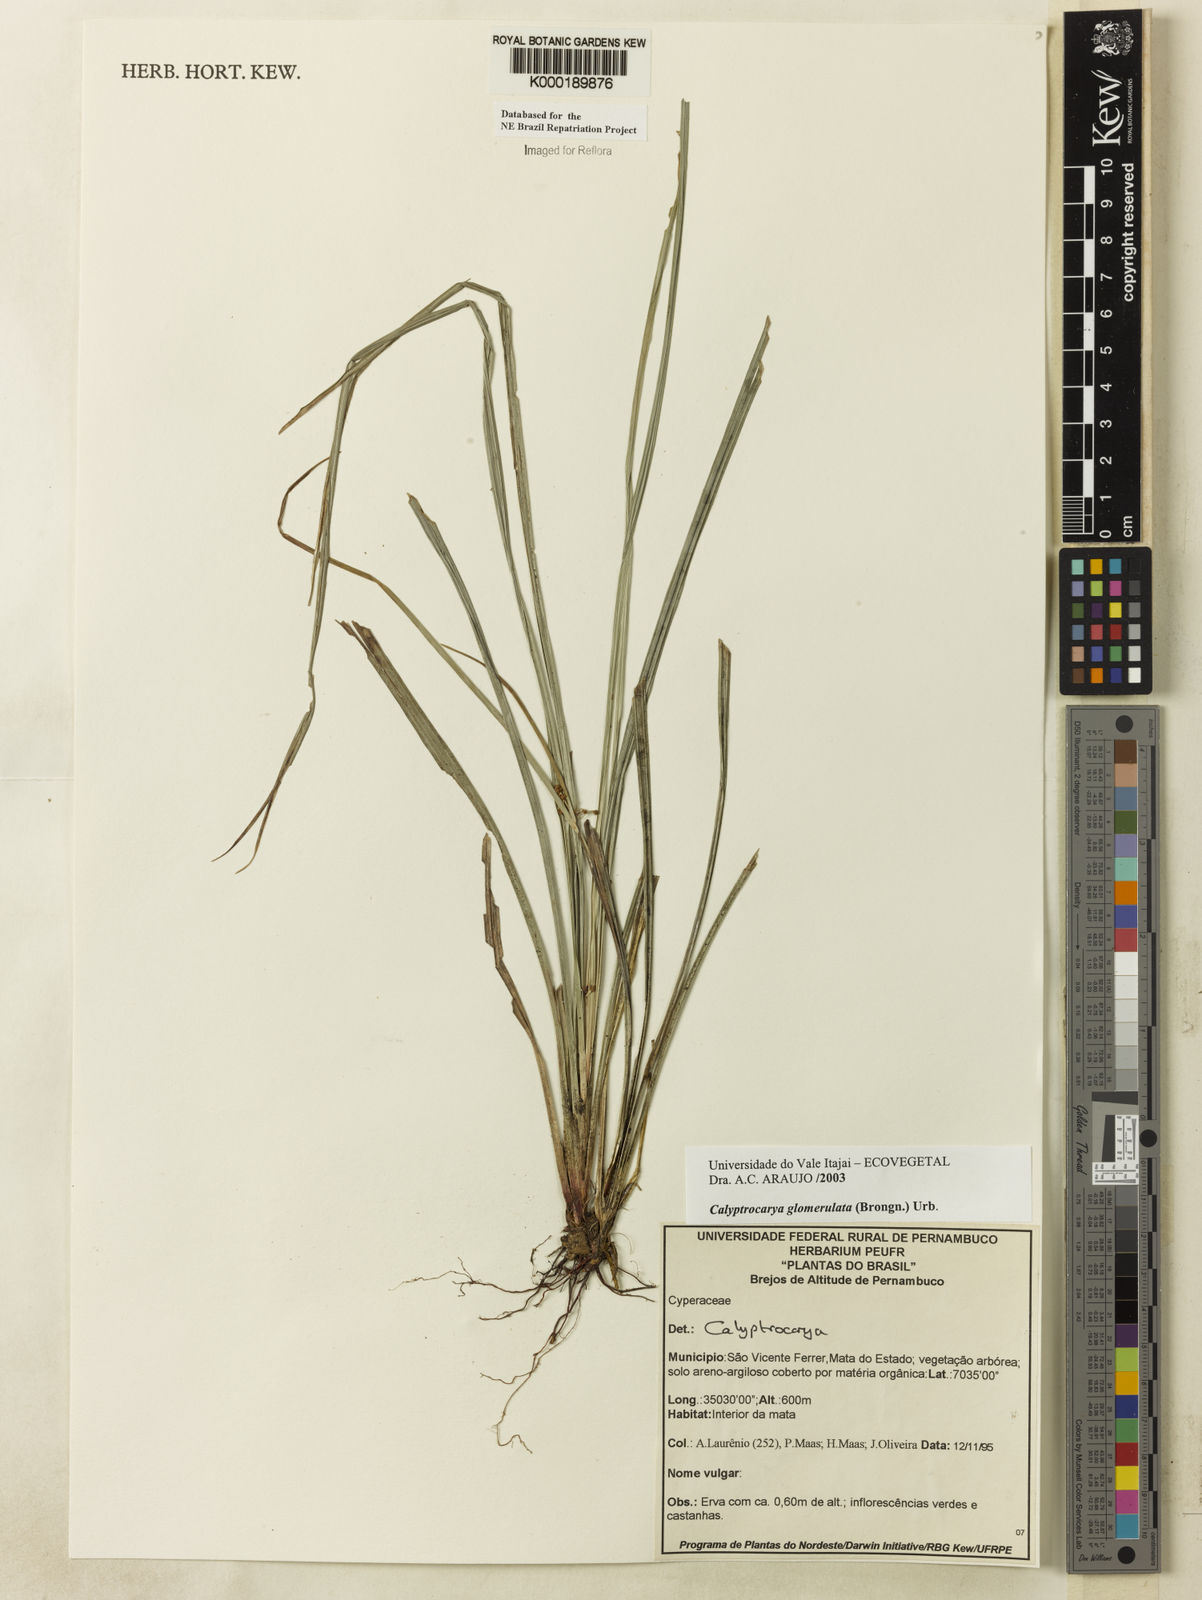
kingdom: Plantae
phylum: Tracheophyta
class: Liliopsida
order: Poales
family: Cyperaceae
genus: Calyptrocarya
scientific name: Calyptrocarya glomerulata
